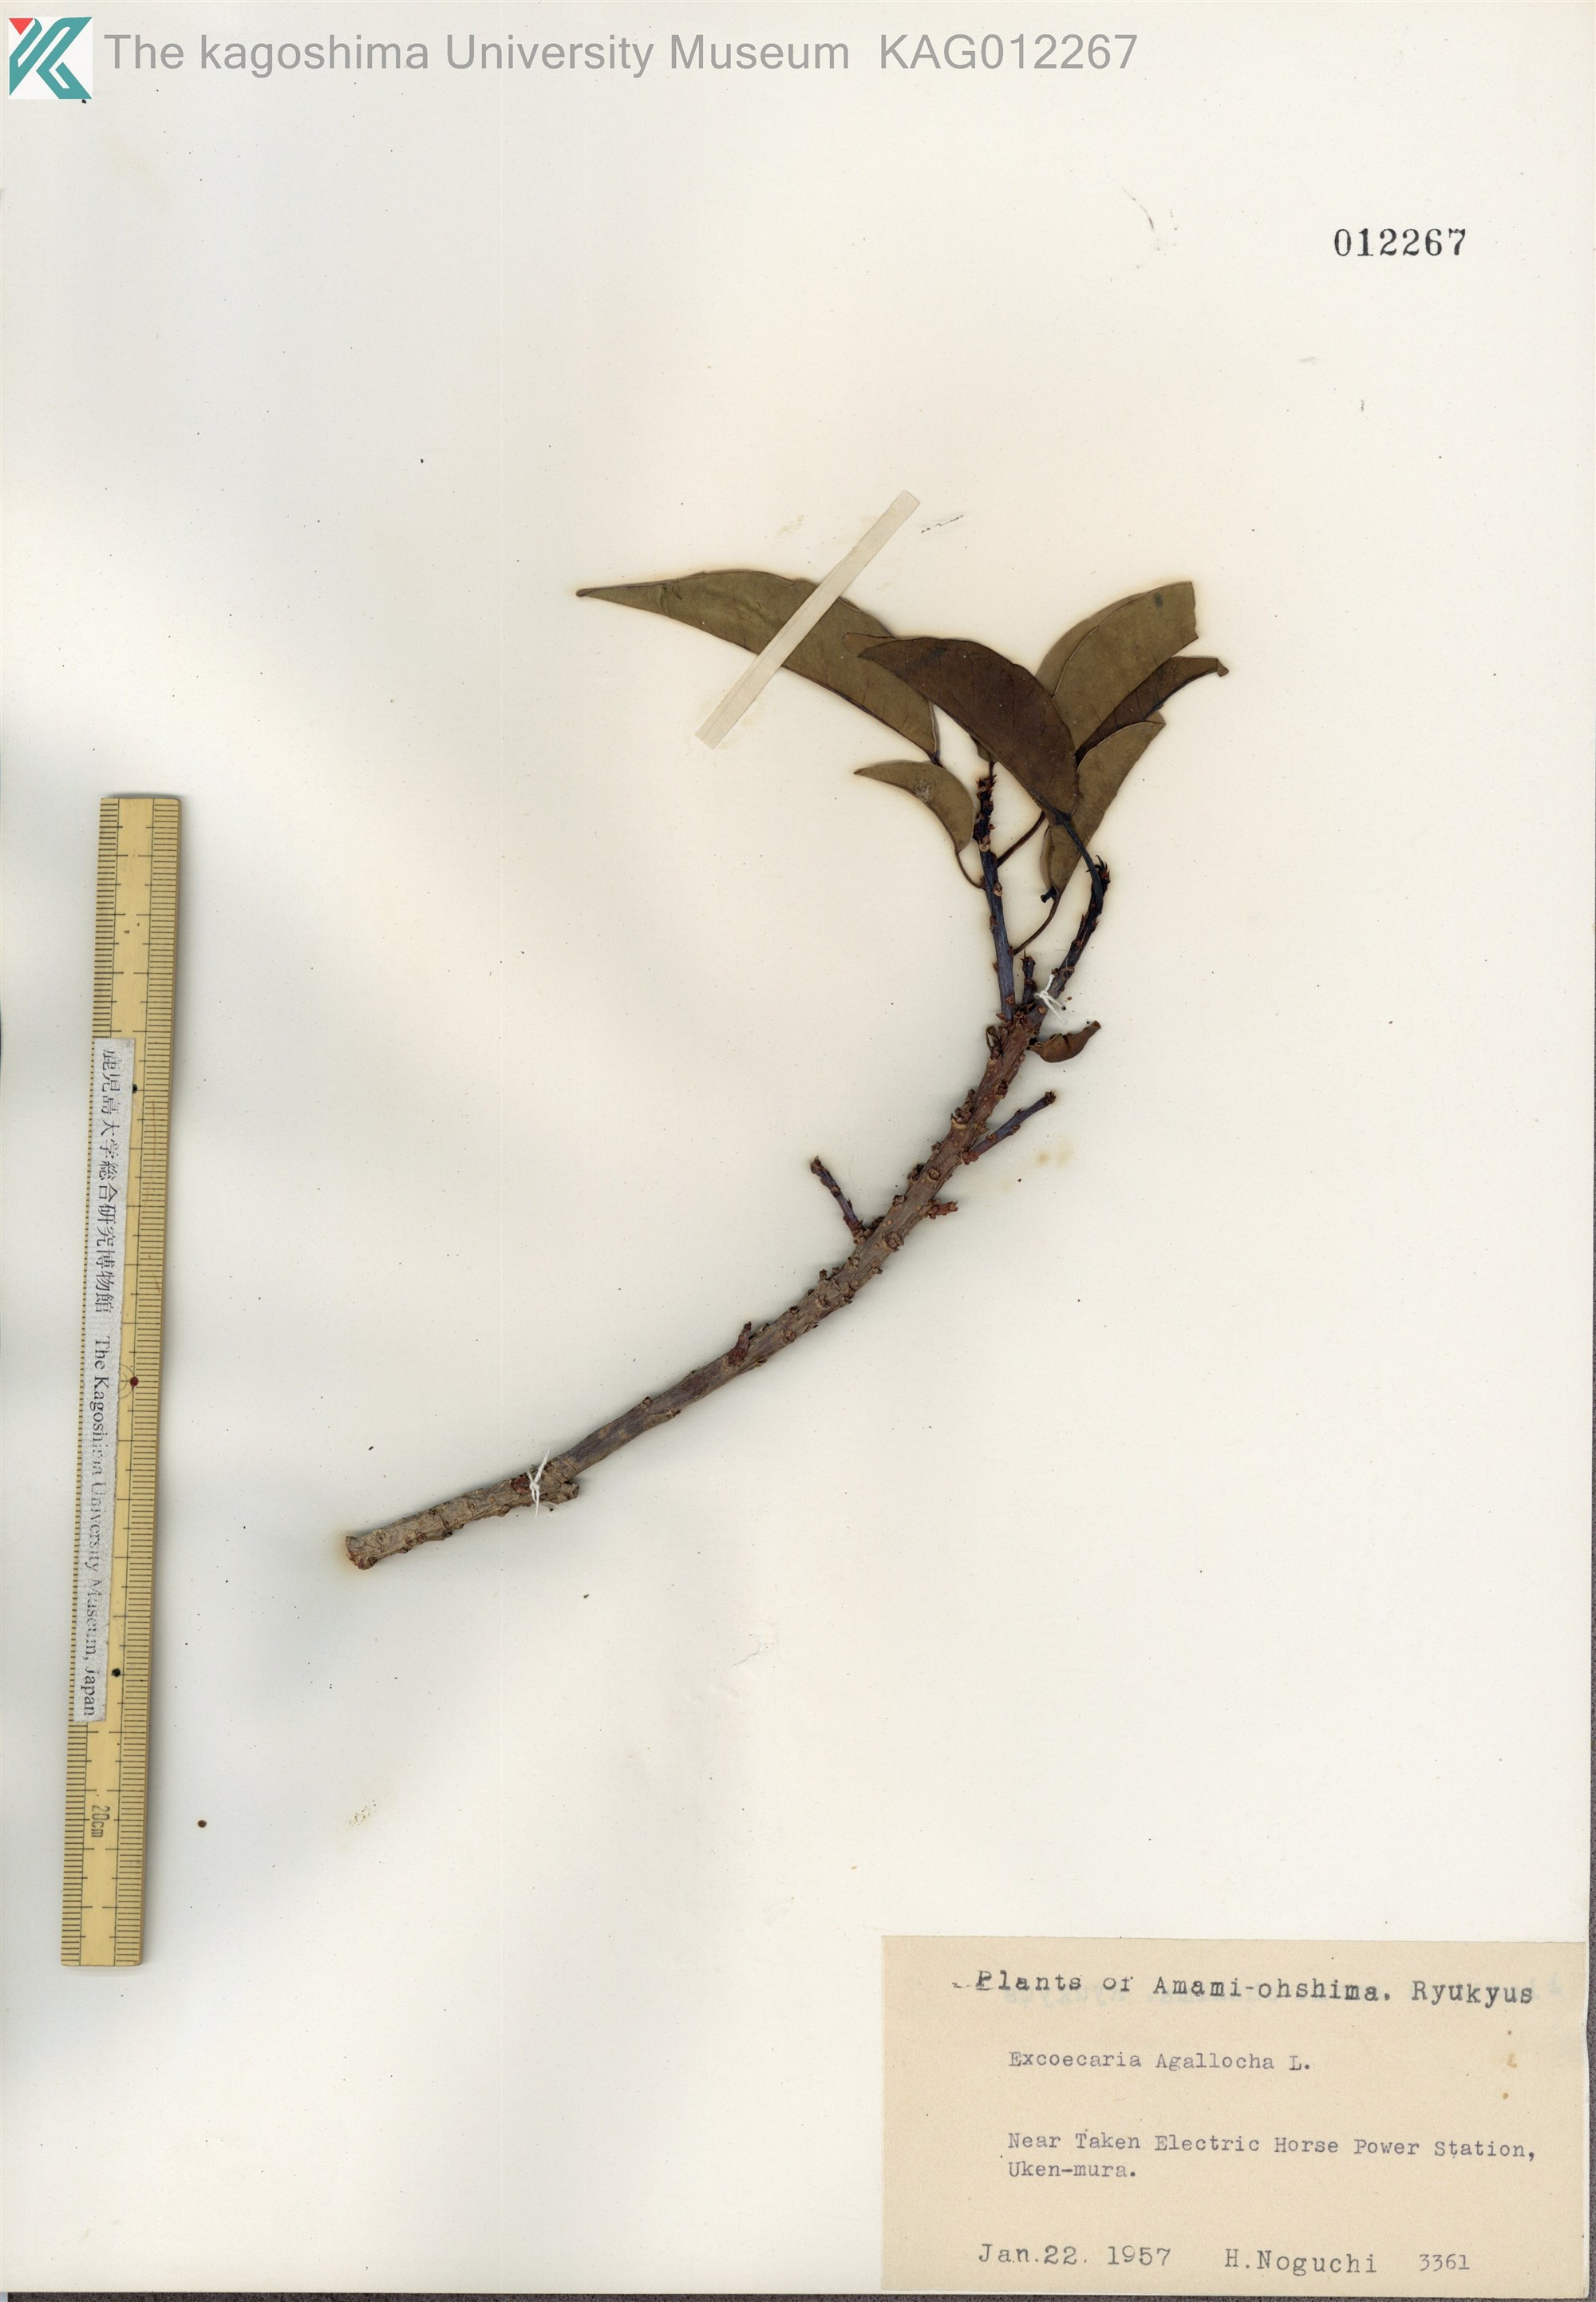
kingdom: Plantae
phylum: Tracheophyta
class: Magnoliopsida
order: Malpighiales
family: Euphorbiaceae
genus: Excoecaria
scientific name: Excoecaria agallocha
